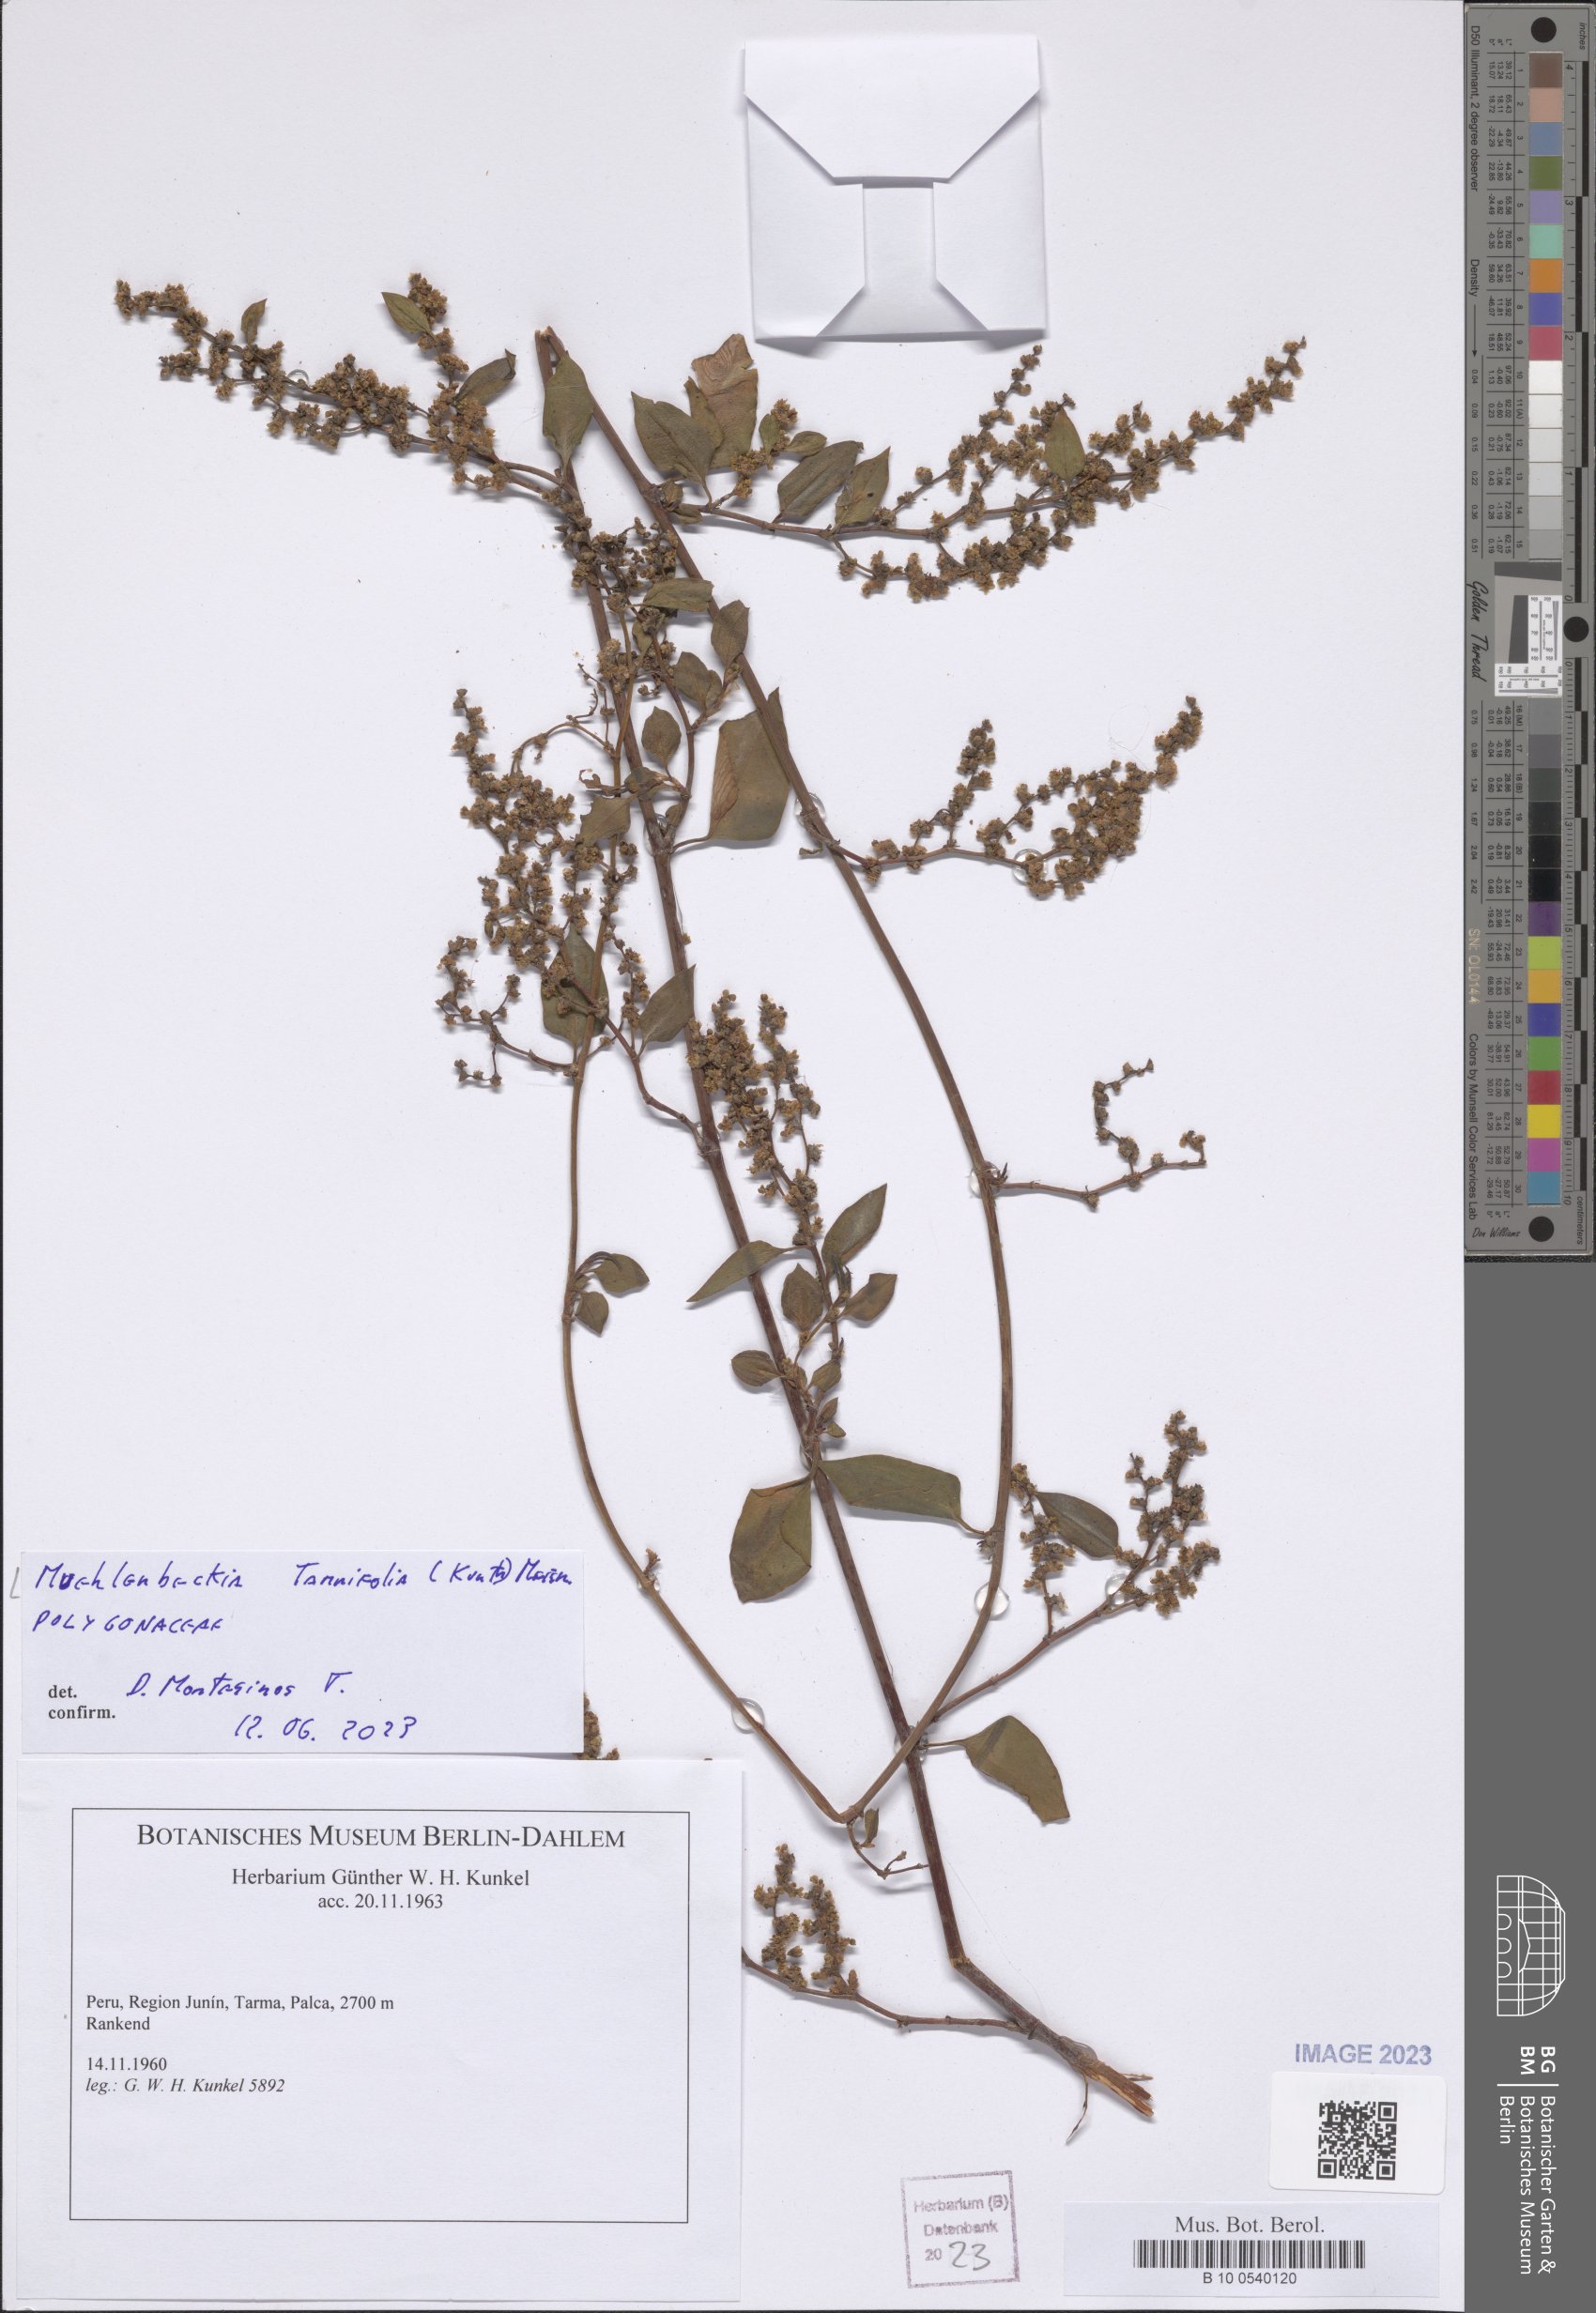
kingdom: Plantae
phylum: Tracheophyta
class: Magnoliopsida
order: Caryophyllales
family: Polygonaceae
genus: Muehlenbeckia
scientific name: Muehlenbeckia tamnifolia
